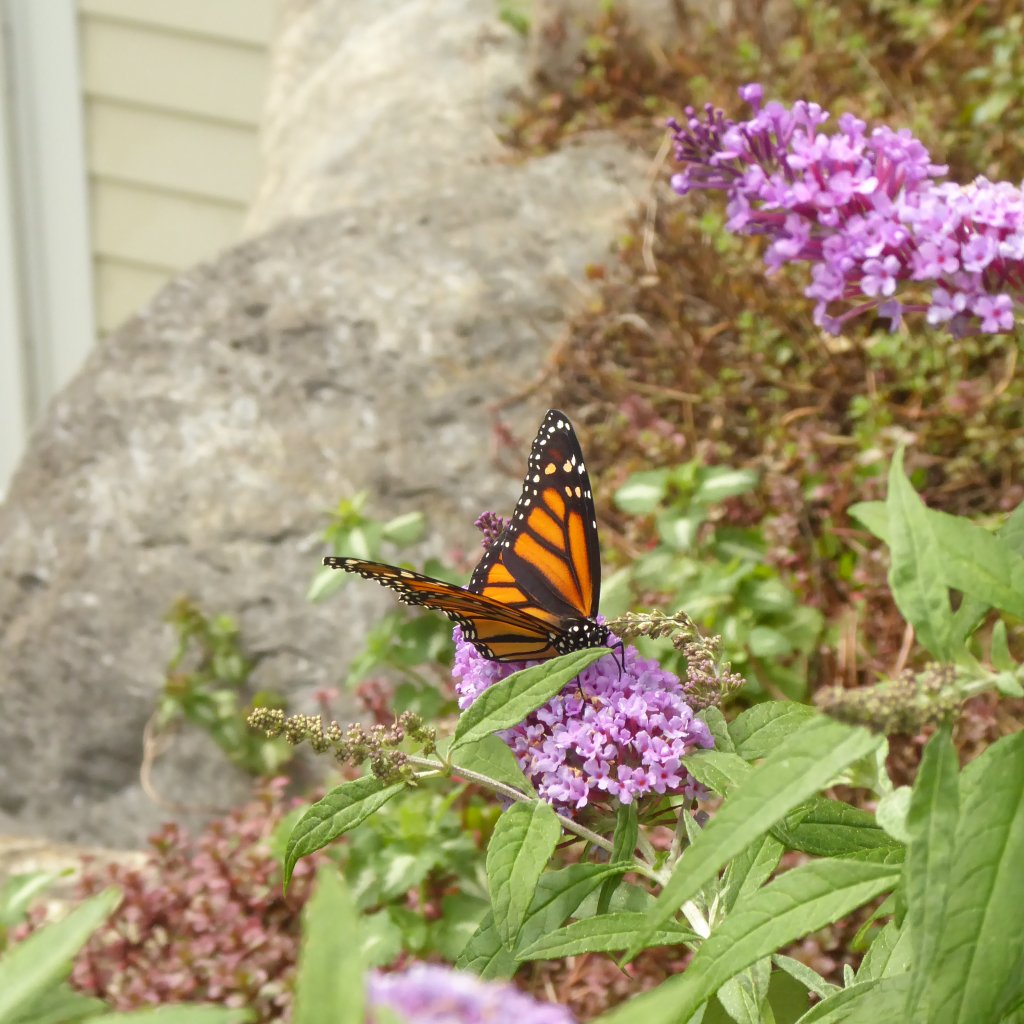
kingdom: Animalia
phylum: Arthropoda
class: Insecta
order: Lepidoptera
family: Nymphalidae
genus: Danaus
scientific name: Danaus plexippus
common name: Monarch
